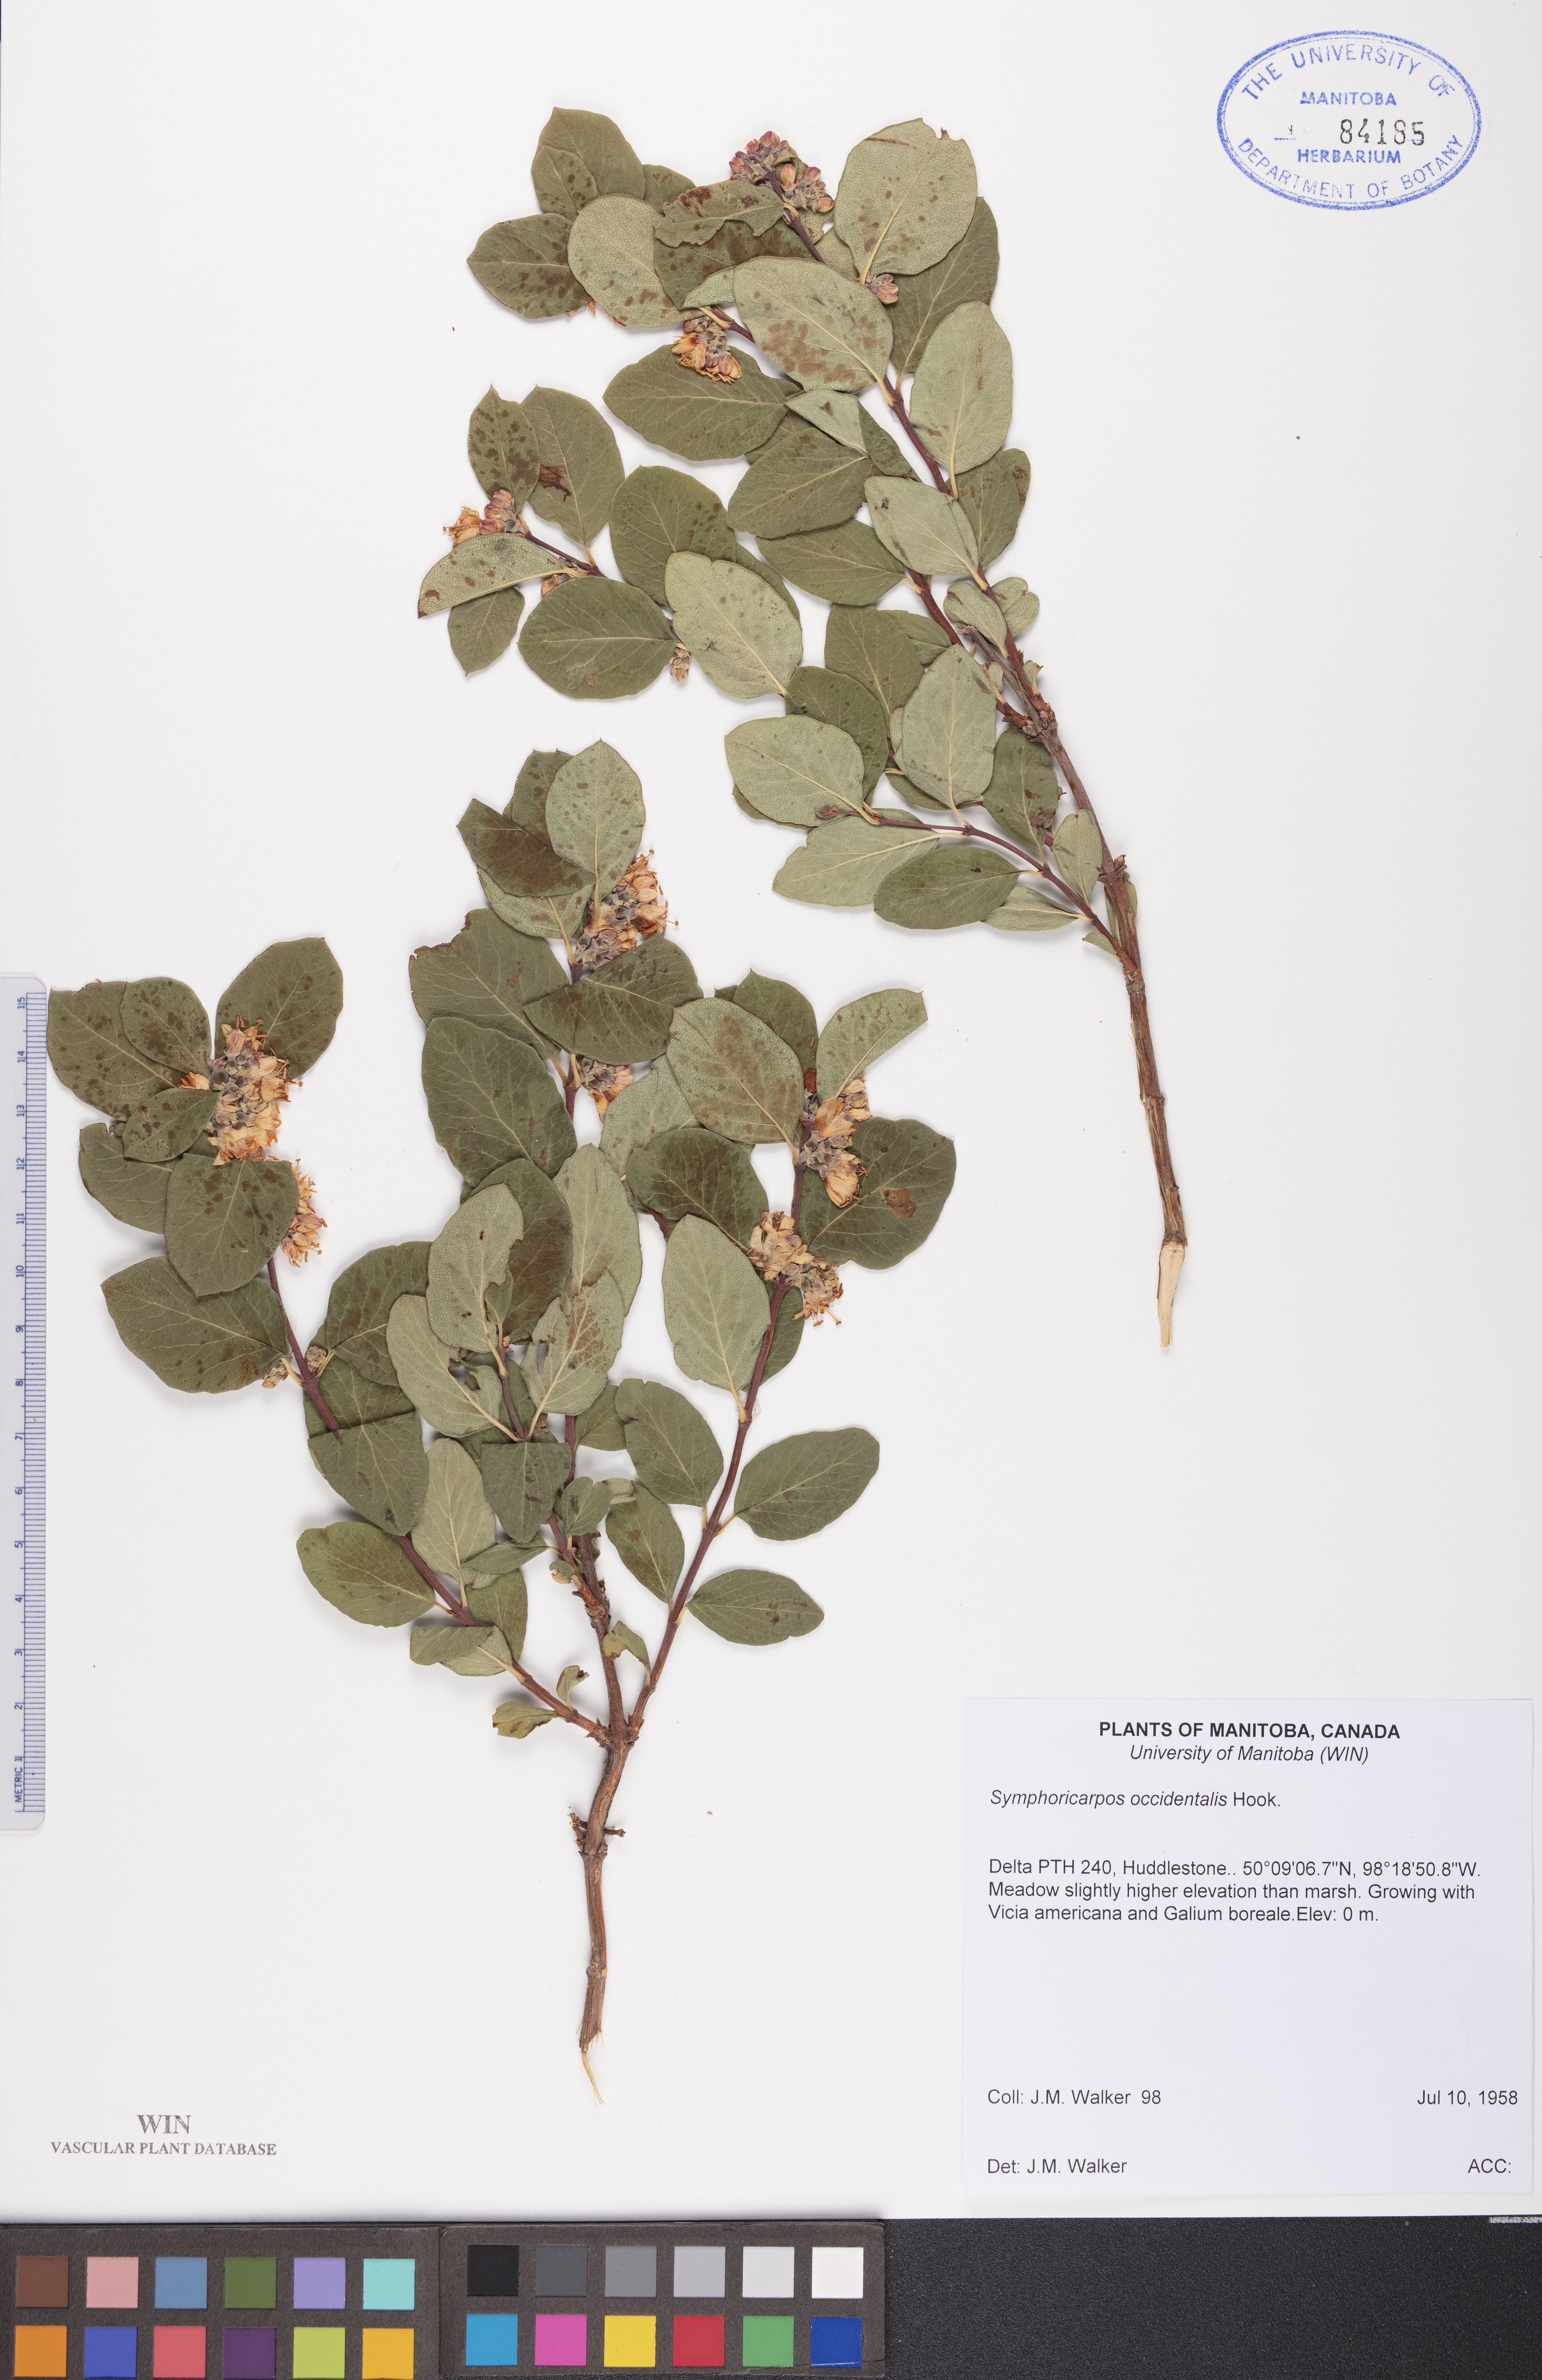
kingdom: Plantae
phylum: Tracheophyta
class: Magnoliopsida
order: Dipsacales
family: Caprifoliaceae
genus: Symphoricarpos
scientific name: Symphoricarpos occidentalis
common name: Wolfberry
